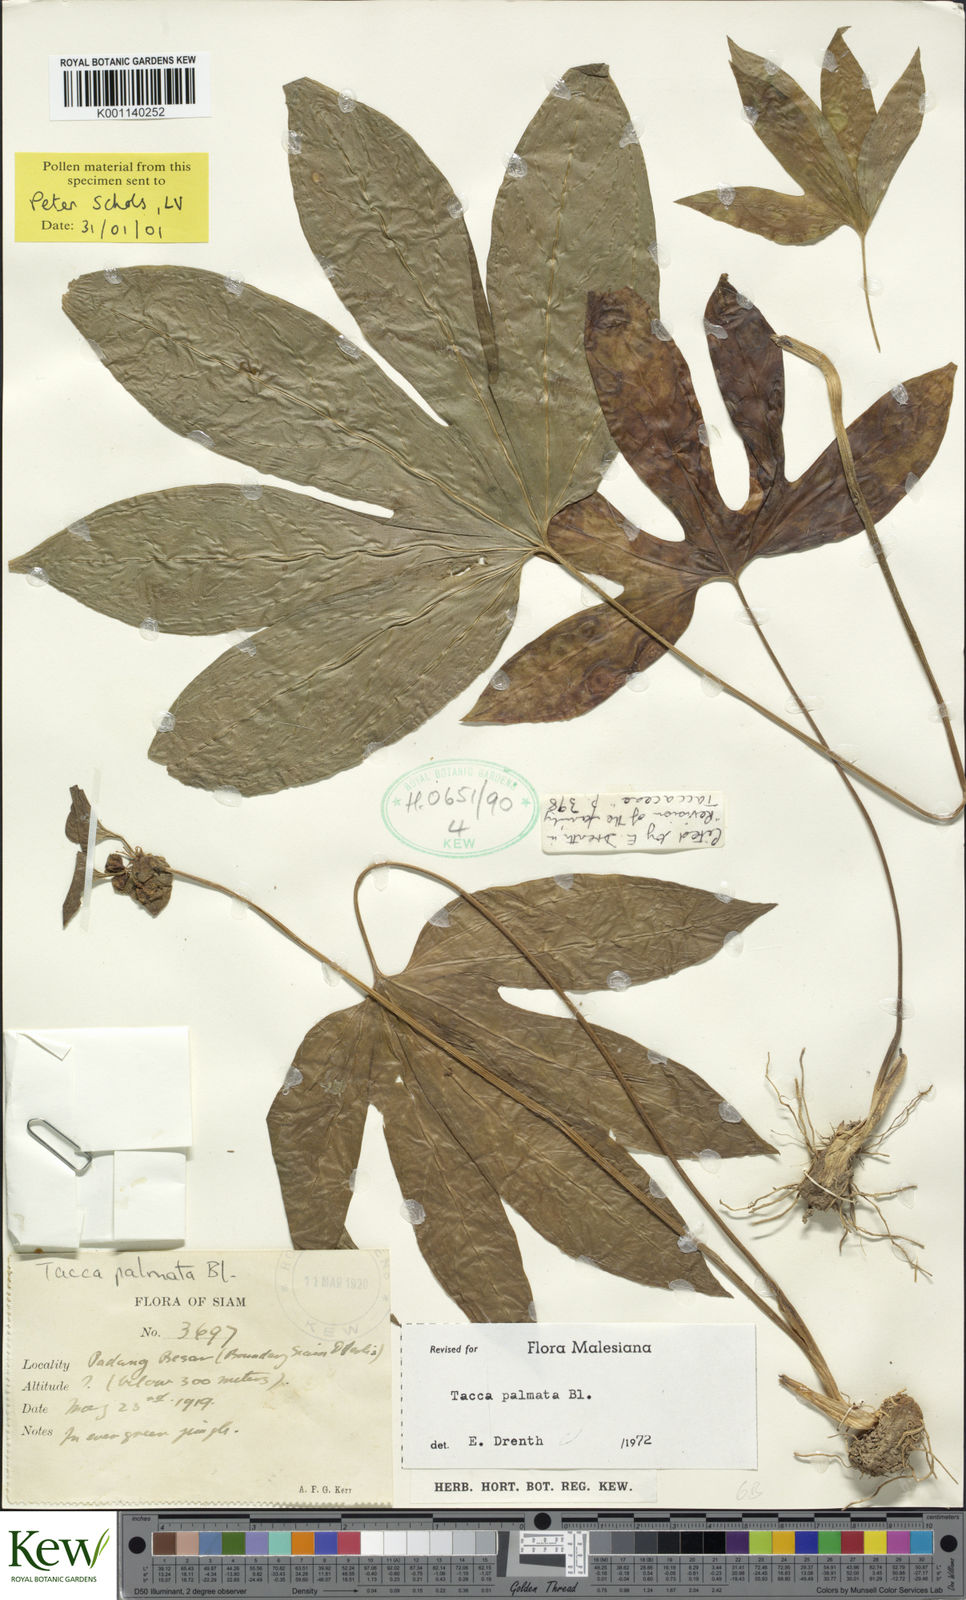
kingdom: Plantae
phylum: Tracheophyta
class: Liliopsida
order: Dioscoreales
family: Dioscoreaceae
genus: Tacca
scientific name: Tacca palmata
